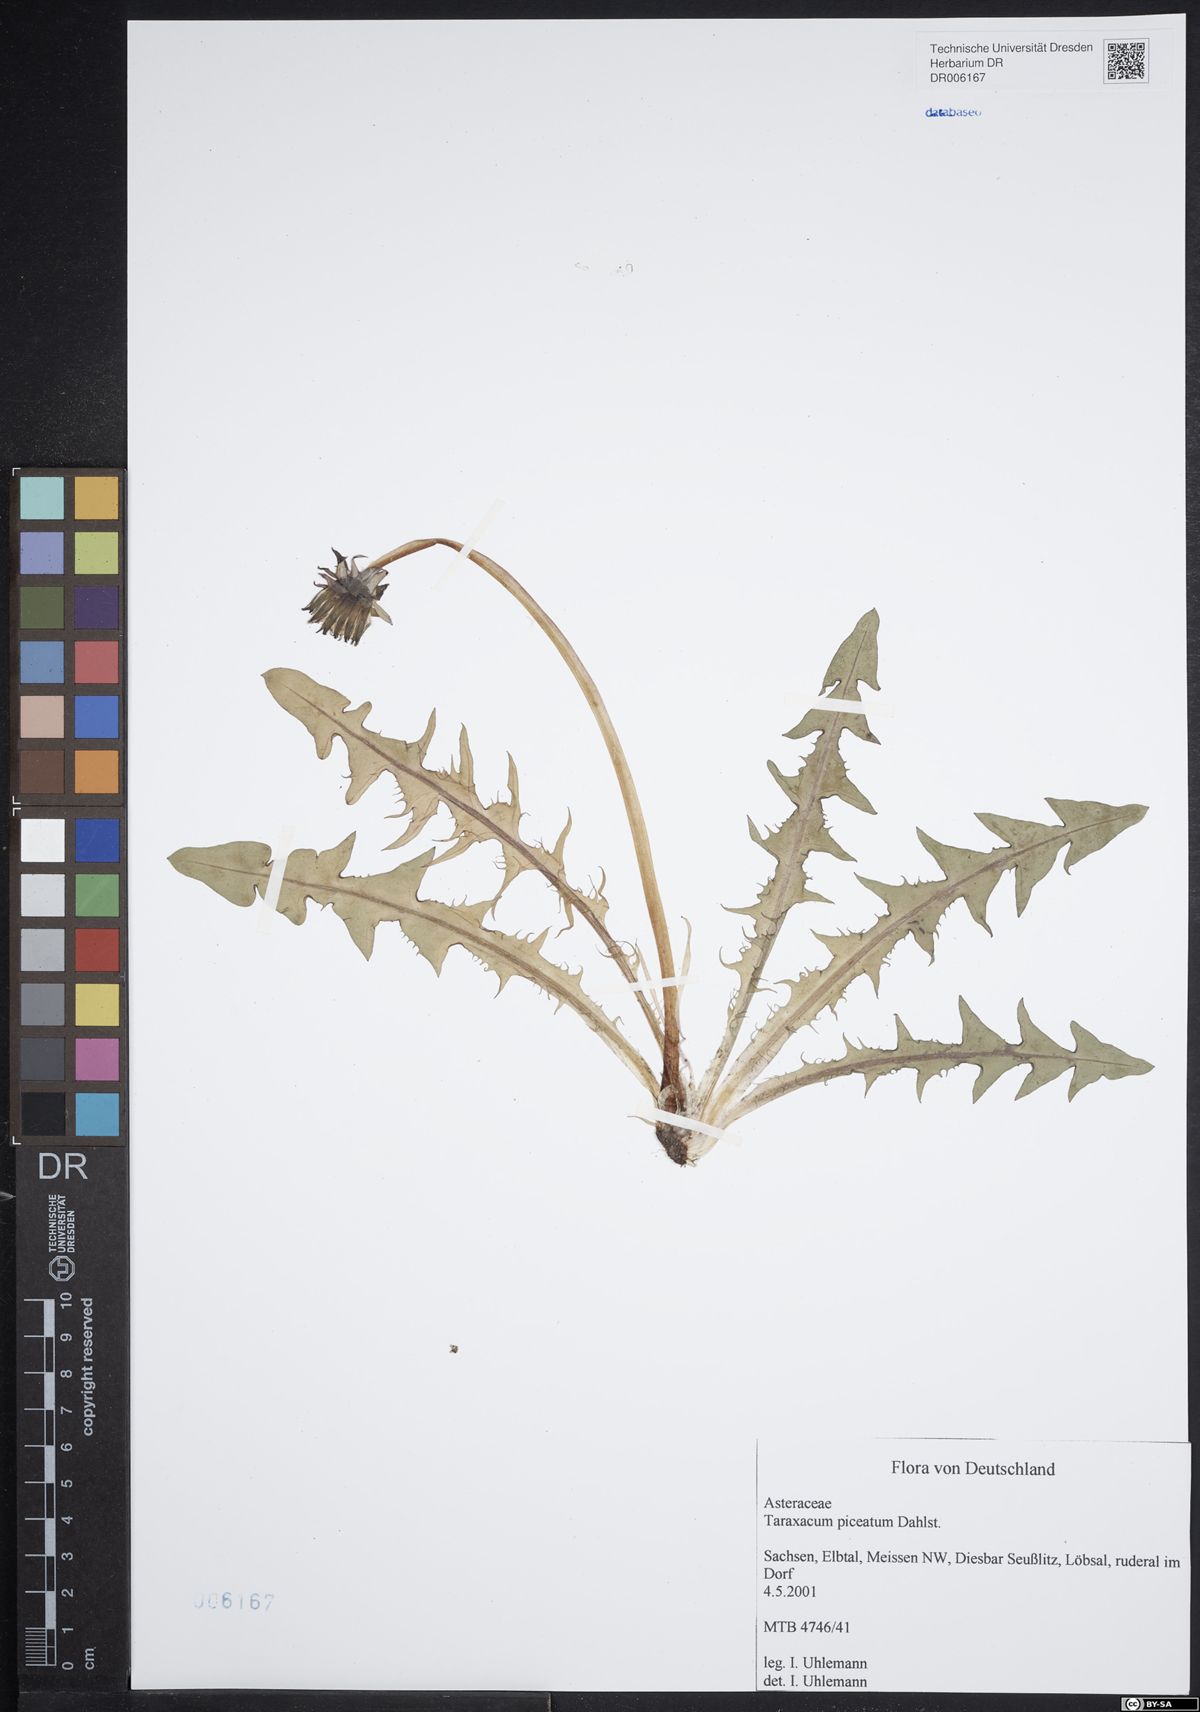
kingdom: Plantae
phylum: Tracheophyta
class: Magnoliopsida
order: Asterales
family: Asteraceae
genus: Taraxacum
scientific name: Taraxacum piceatum
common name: Leaden-bracted dandelion
